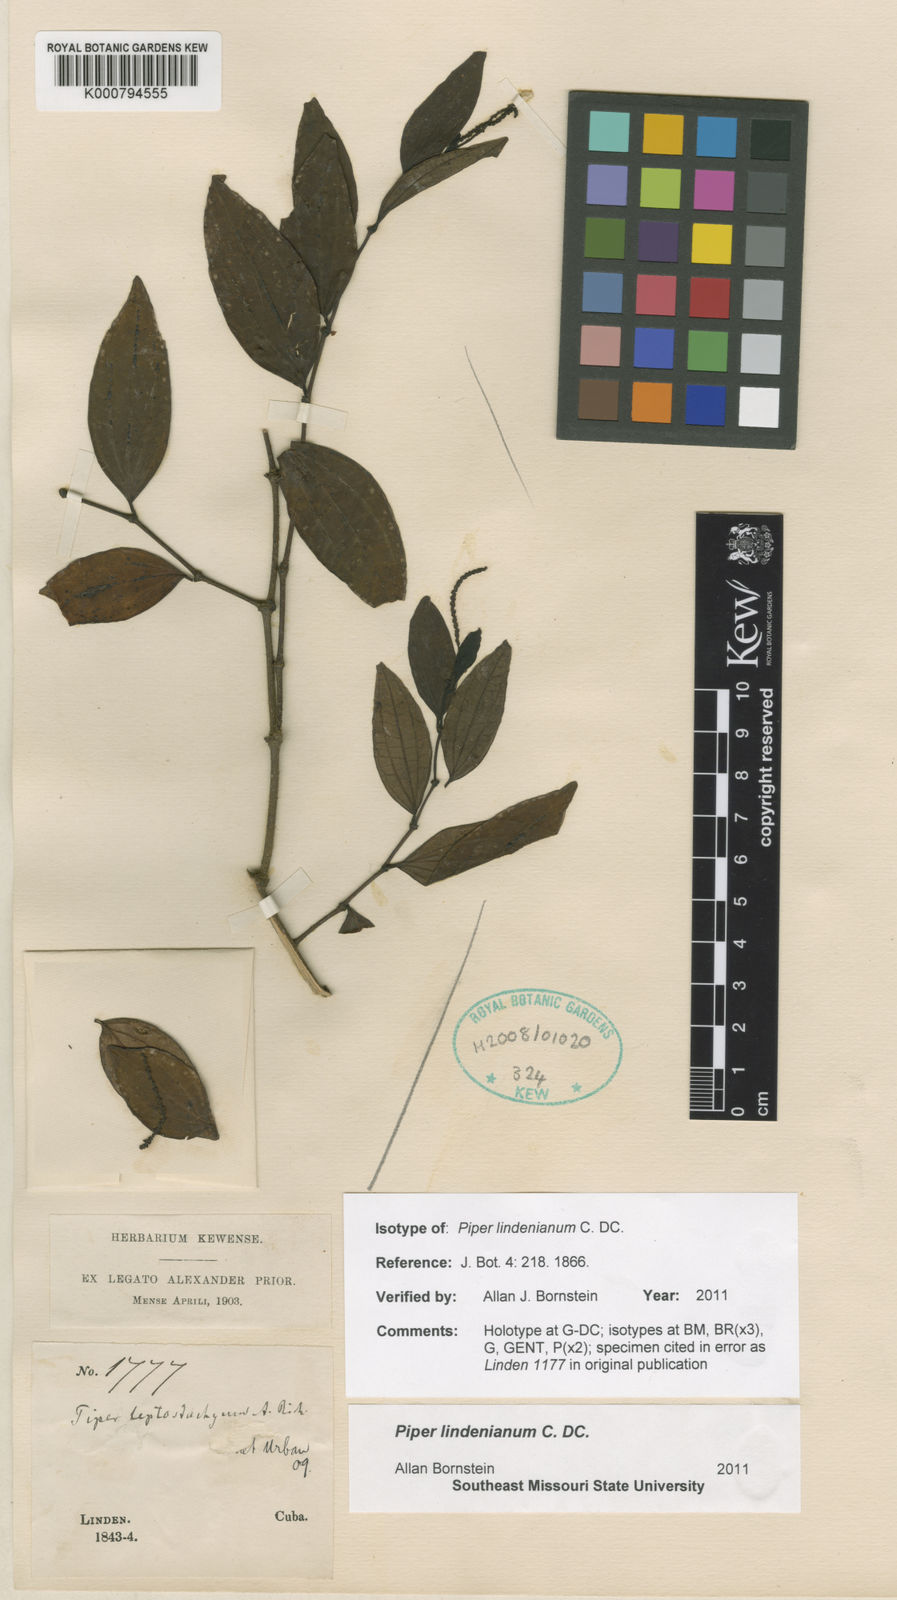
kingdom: Plantae
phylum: Tracheophyta
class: Magnoliopsida
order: Piperales
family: Piperaceae
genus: Piper
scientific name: Piper lindenianum
